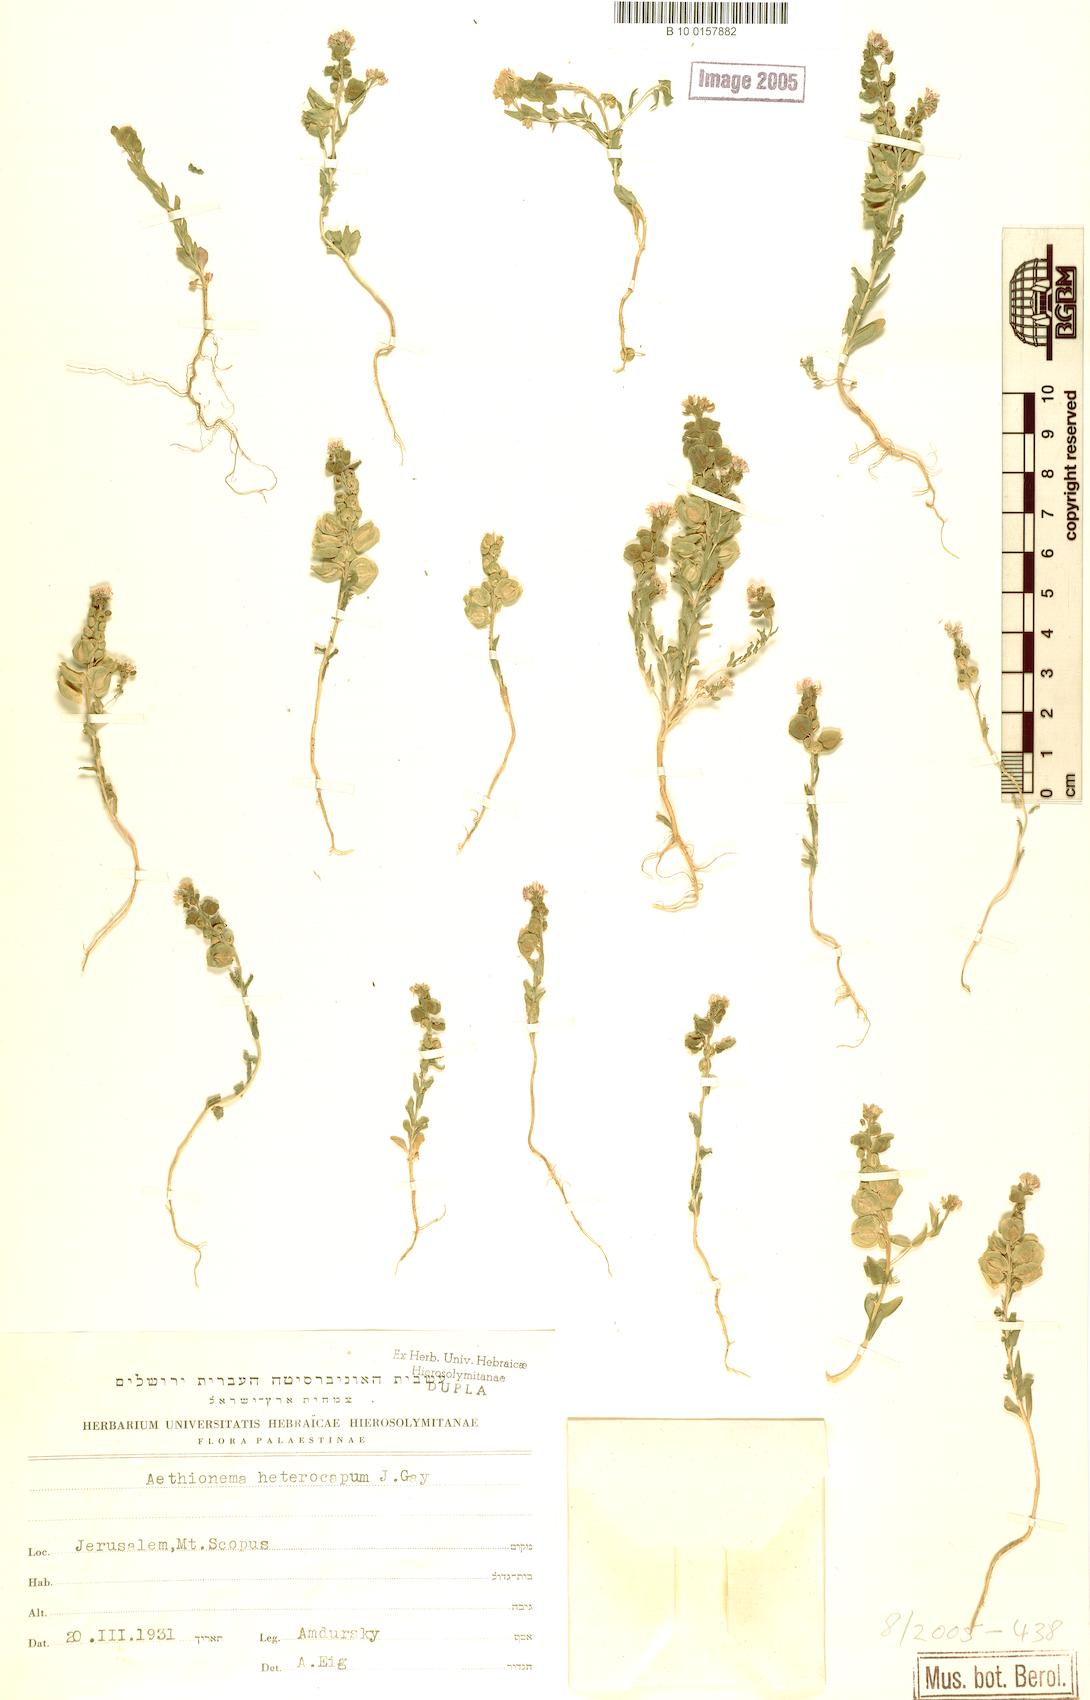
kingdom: Plantae
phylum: Tracheophyta
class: Magnoliopsida
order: Brassicales
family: Brassicaceae
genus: Aethionema
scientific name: Aethionema heterocarpum
